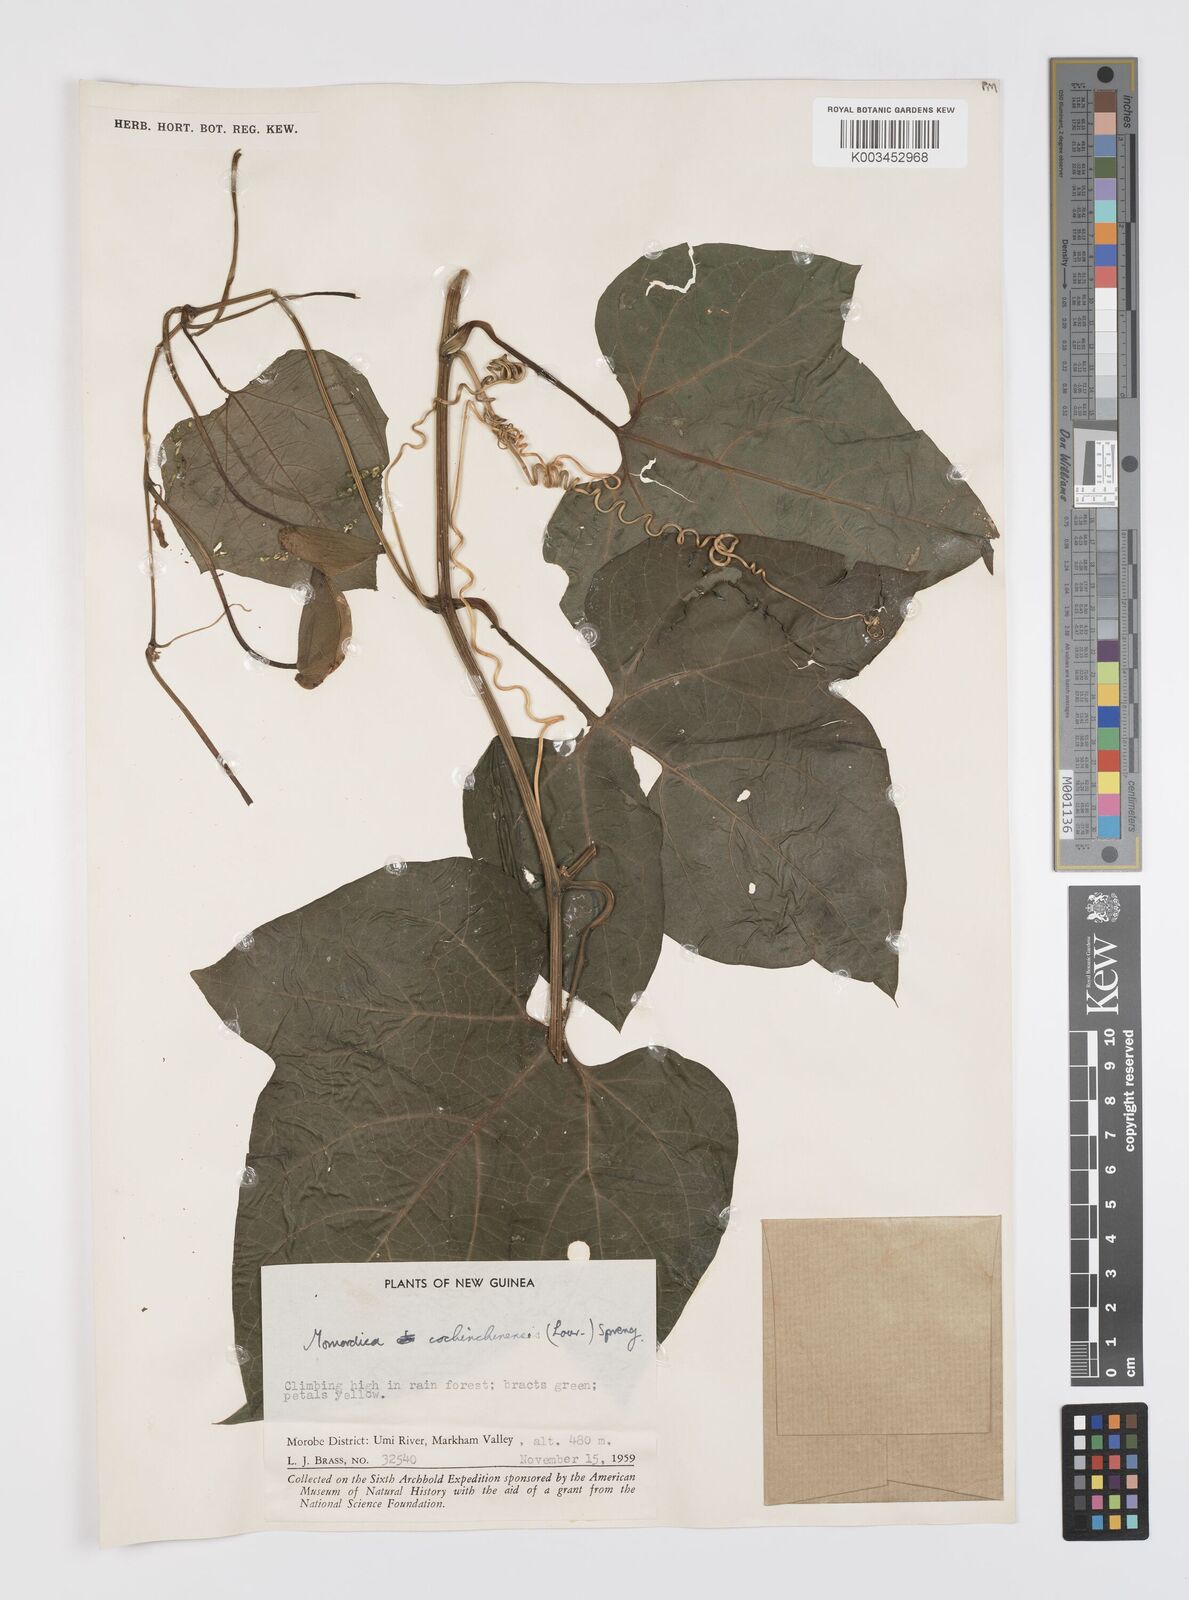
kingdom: Plantae
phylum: Tracheophyta
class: Magnoliopsida
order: Cucurbitales
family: Cucurbitaceae
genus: Momordica
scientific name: Momordica cochinchinensis
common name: Chinese bitter-cucumber
